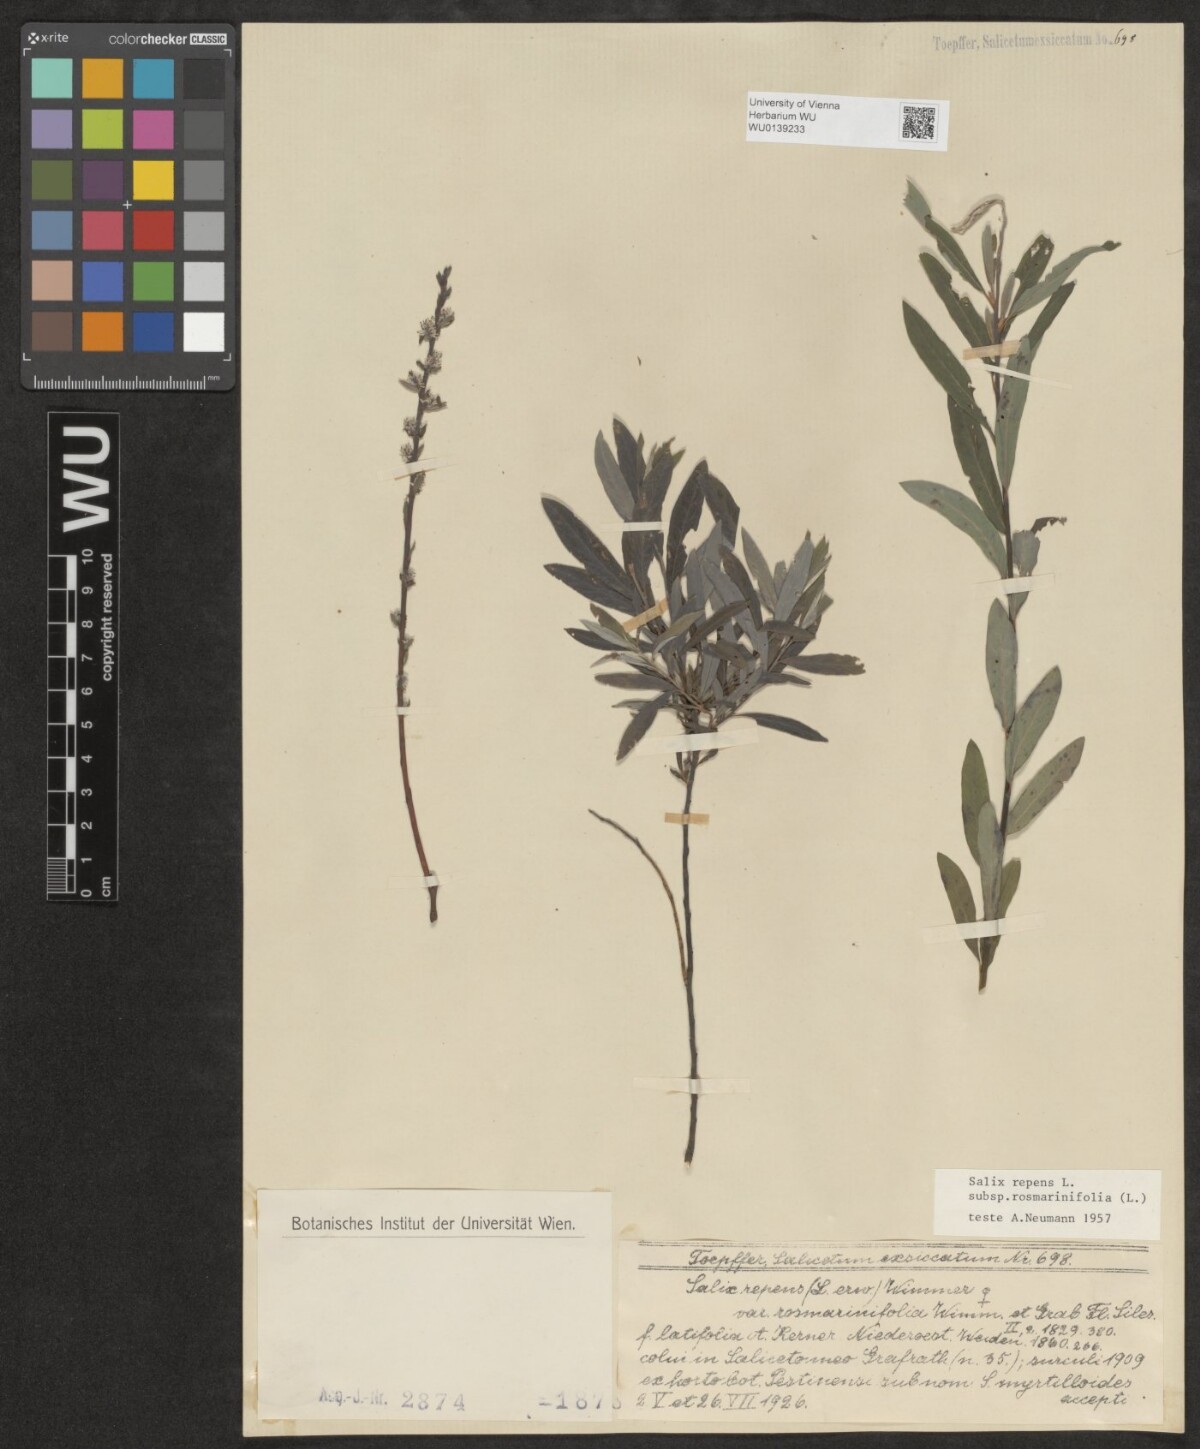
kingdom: Plantae
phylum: Tracheophyta
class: Magnoliopsida
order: Malpighiales
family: Salicaceae
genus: Salix
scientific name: Salix repens
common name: Creeping willow
